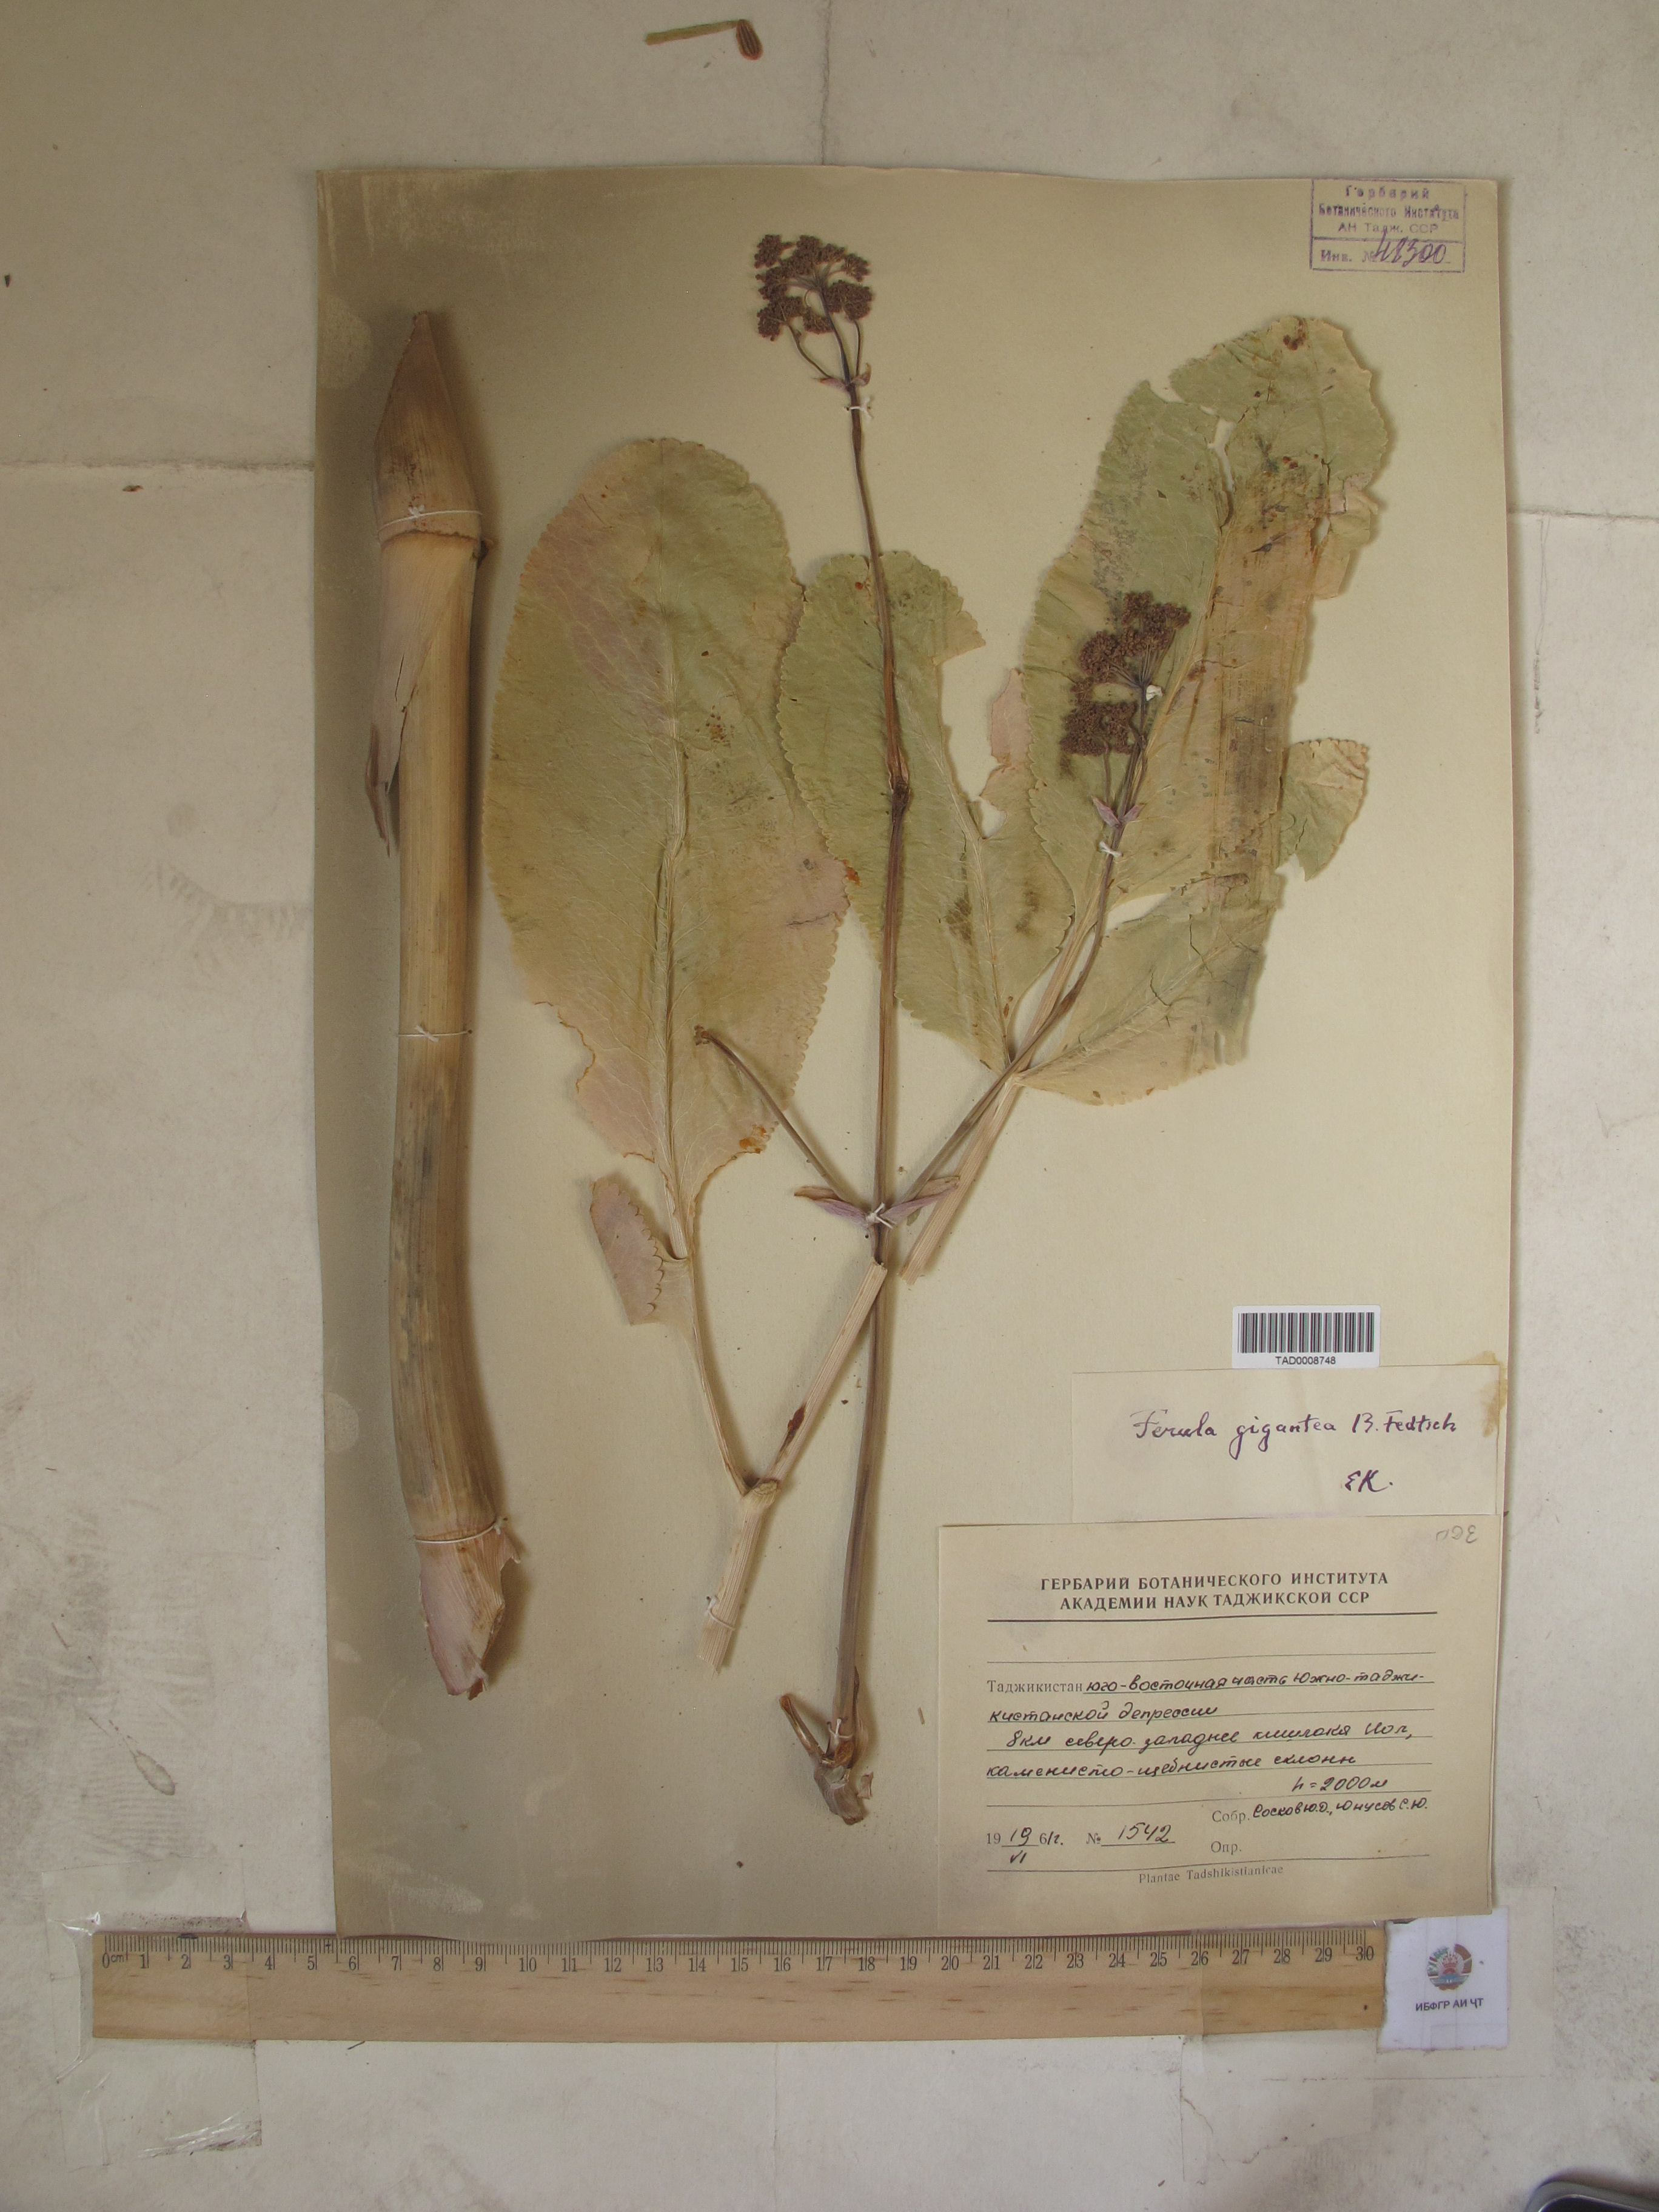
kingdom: Plantae
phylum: Tracheophyta
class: Magnoliopsida
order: Apiales
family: Apiaceae
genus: Ferula
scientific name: Ferula gigantea
